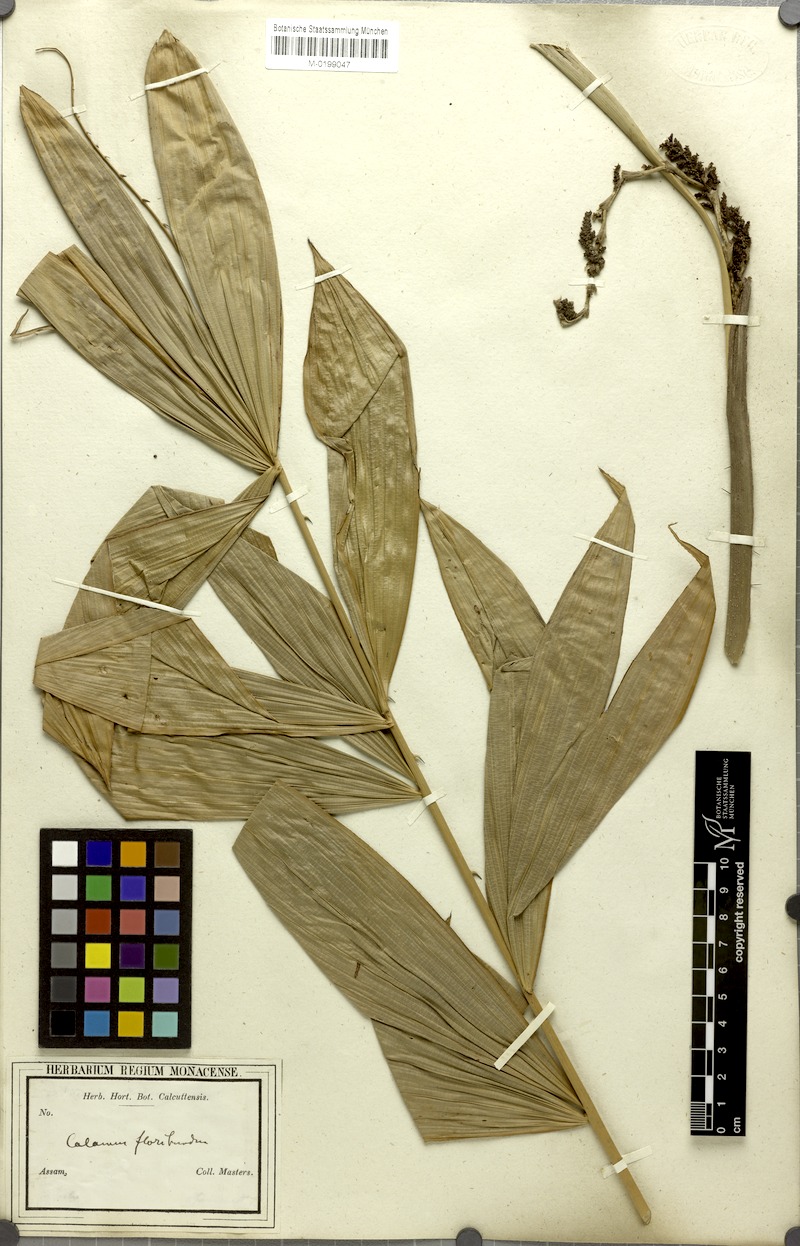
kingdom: Plantae
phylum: Tracheophyta
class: Liliopsida
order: Arecales
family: Arecaceae
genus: Calamus
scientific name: Calamus floribundus
